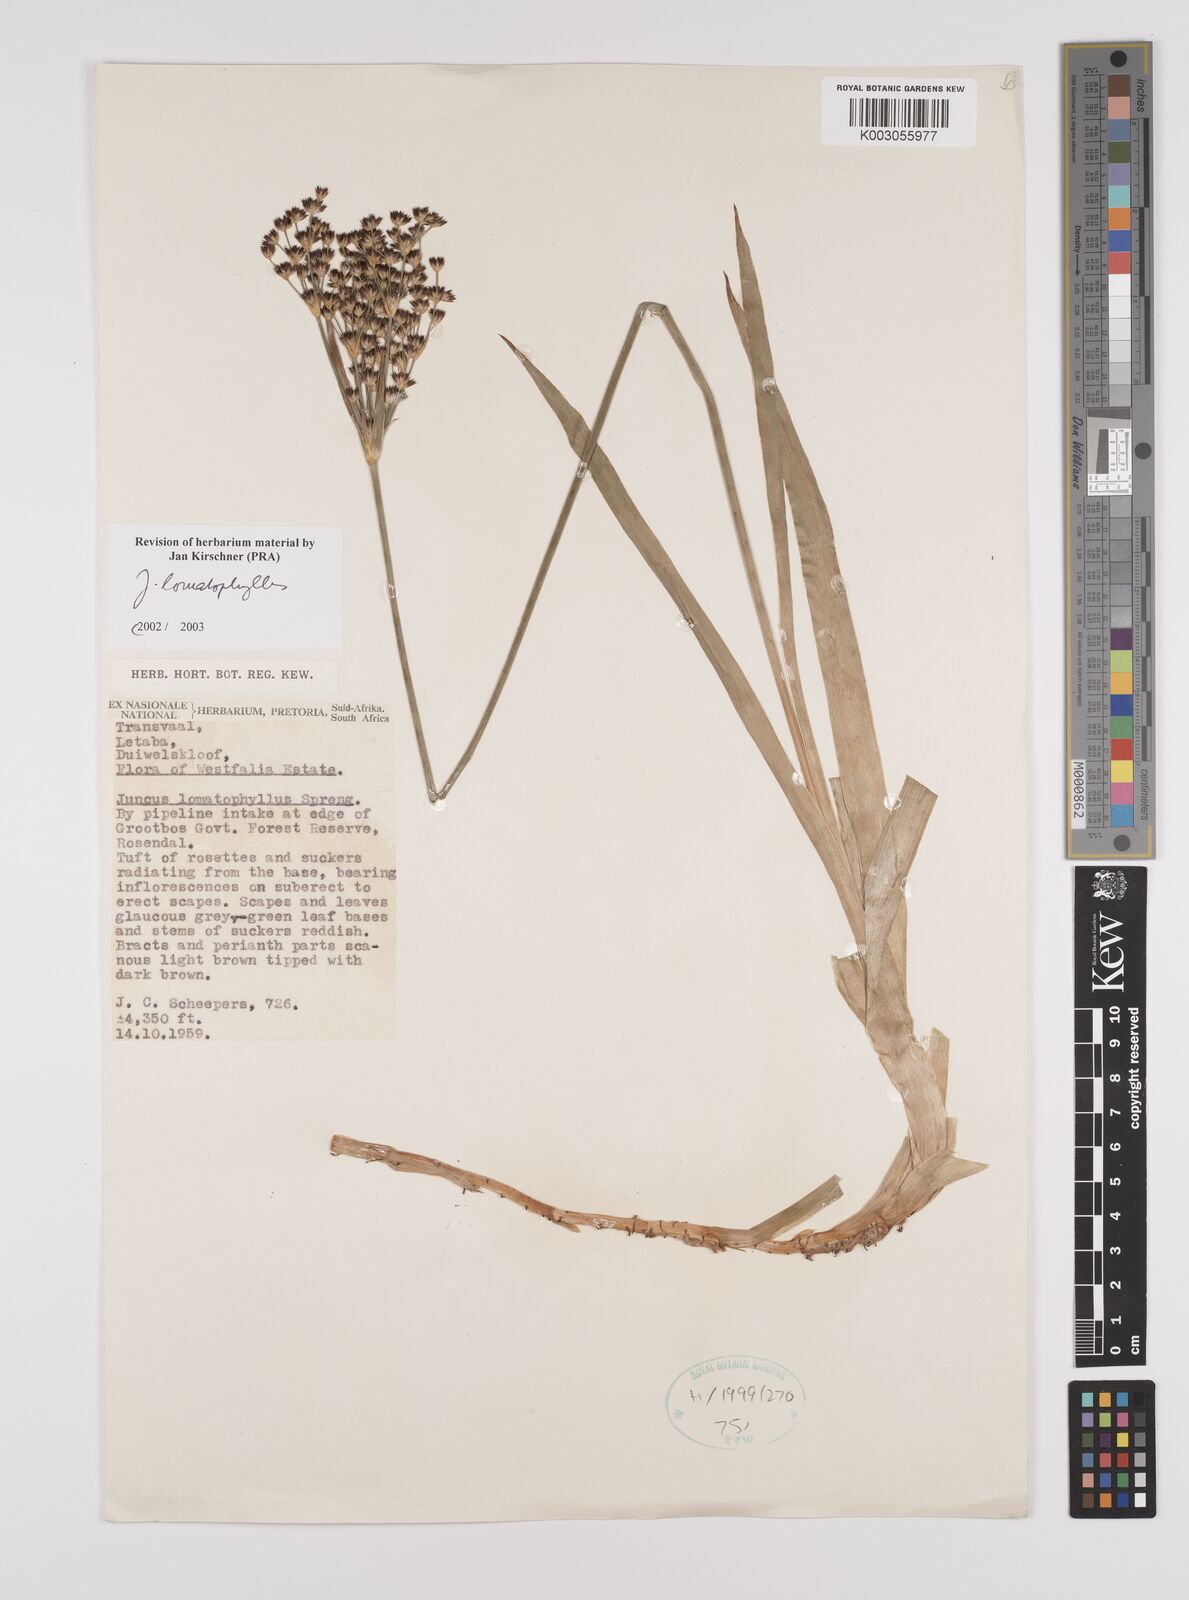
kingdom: Plantae
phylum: Tracheophyta
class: Liliopsida
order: Poales
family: Juncaceae
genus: Juncus
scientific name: Juncus lomatophyllus
